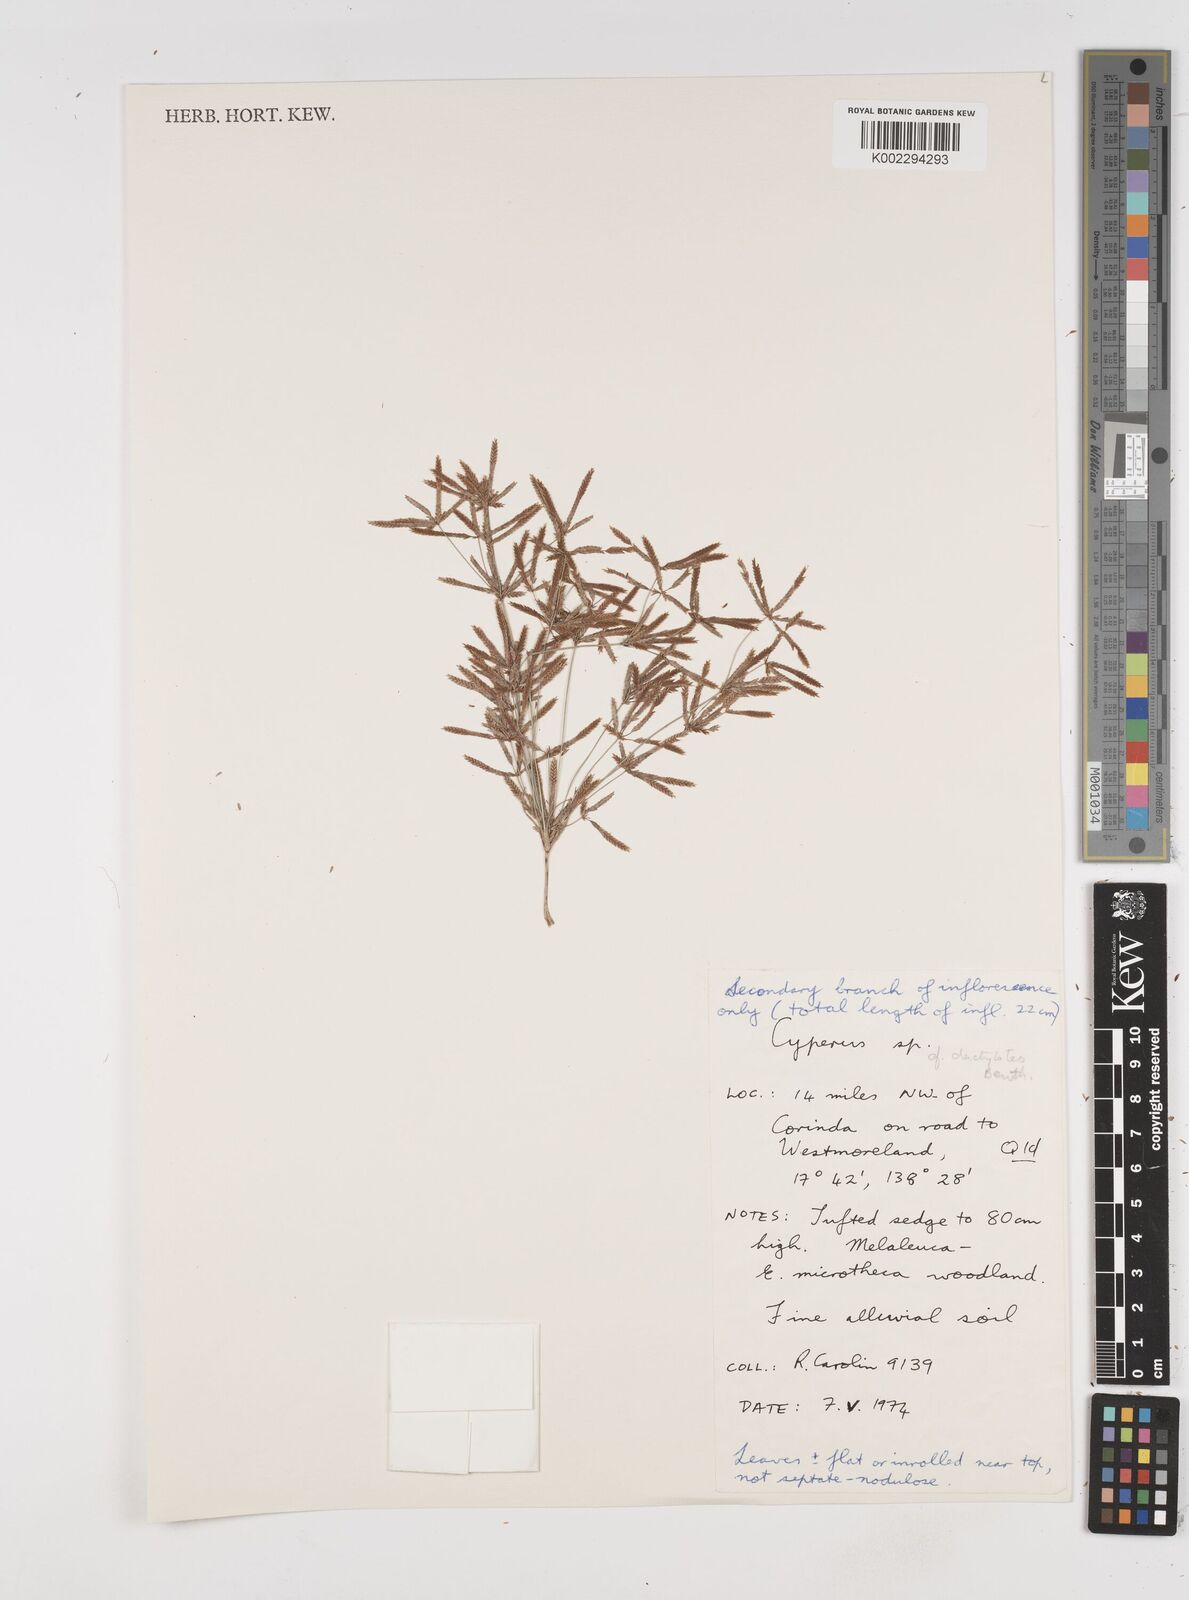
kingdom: Plantae
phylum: Tracheophyta
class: Liliopsida
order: Poales
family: Cyperaceae
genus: Cyperus
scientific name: Cyperus dactylotes
